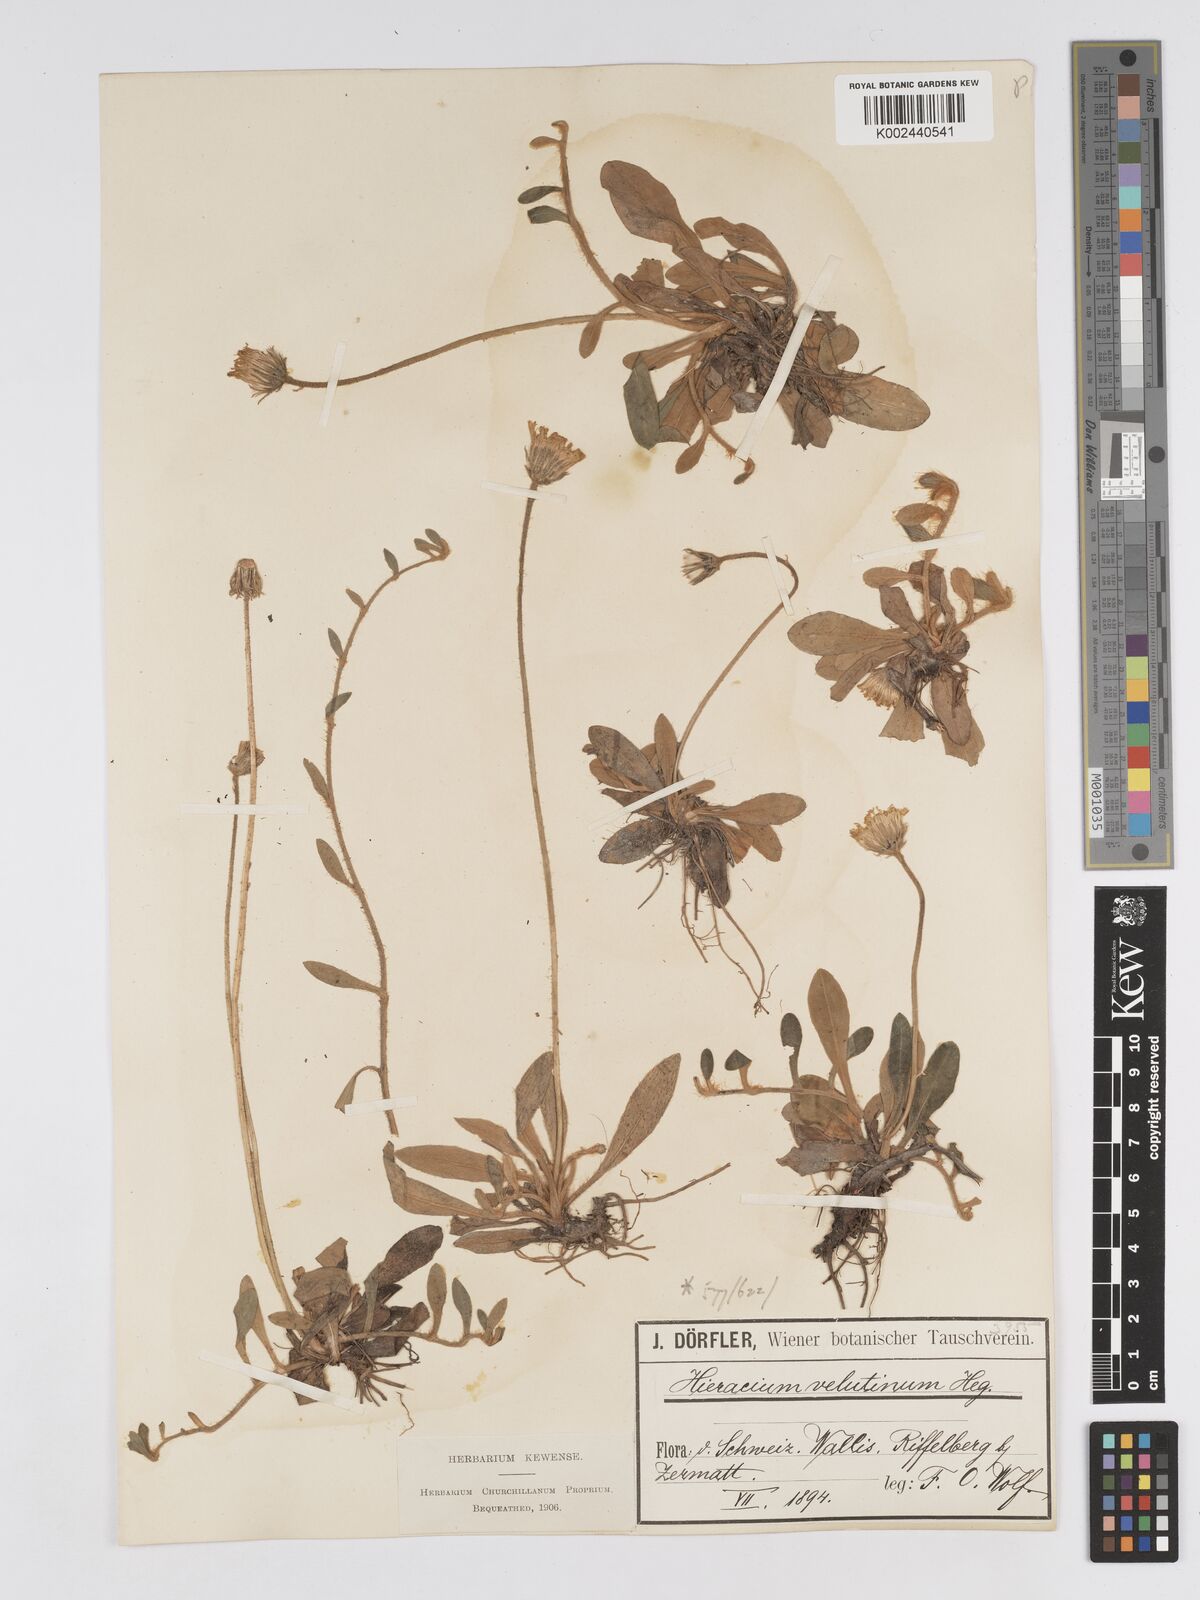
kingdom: Plantae
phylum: Tracheophyta
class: Magnoliopsida
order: Asterales
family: Asteraceae
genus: Pilosella
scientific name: Pilosella velutina
